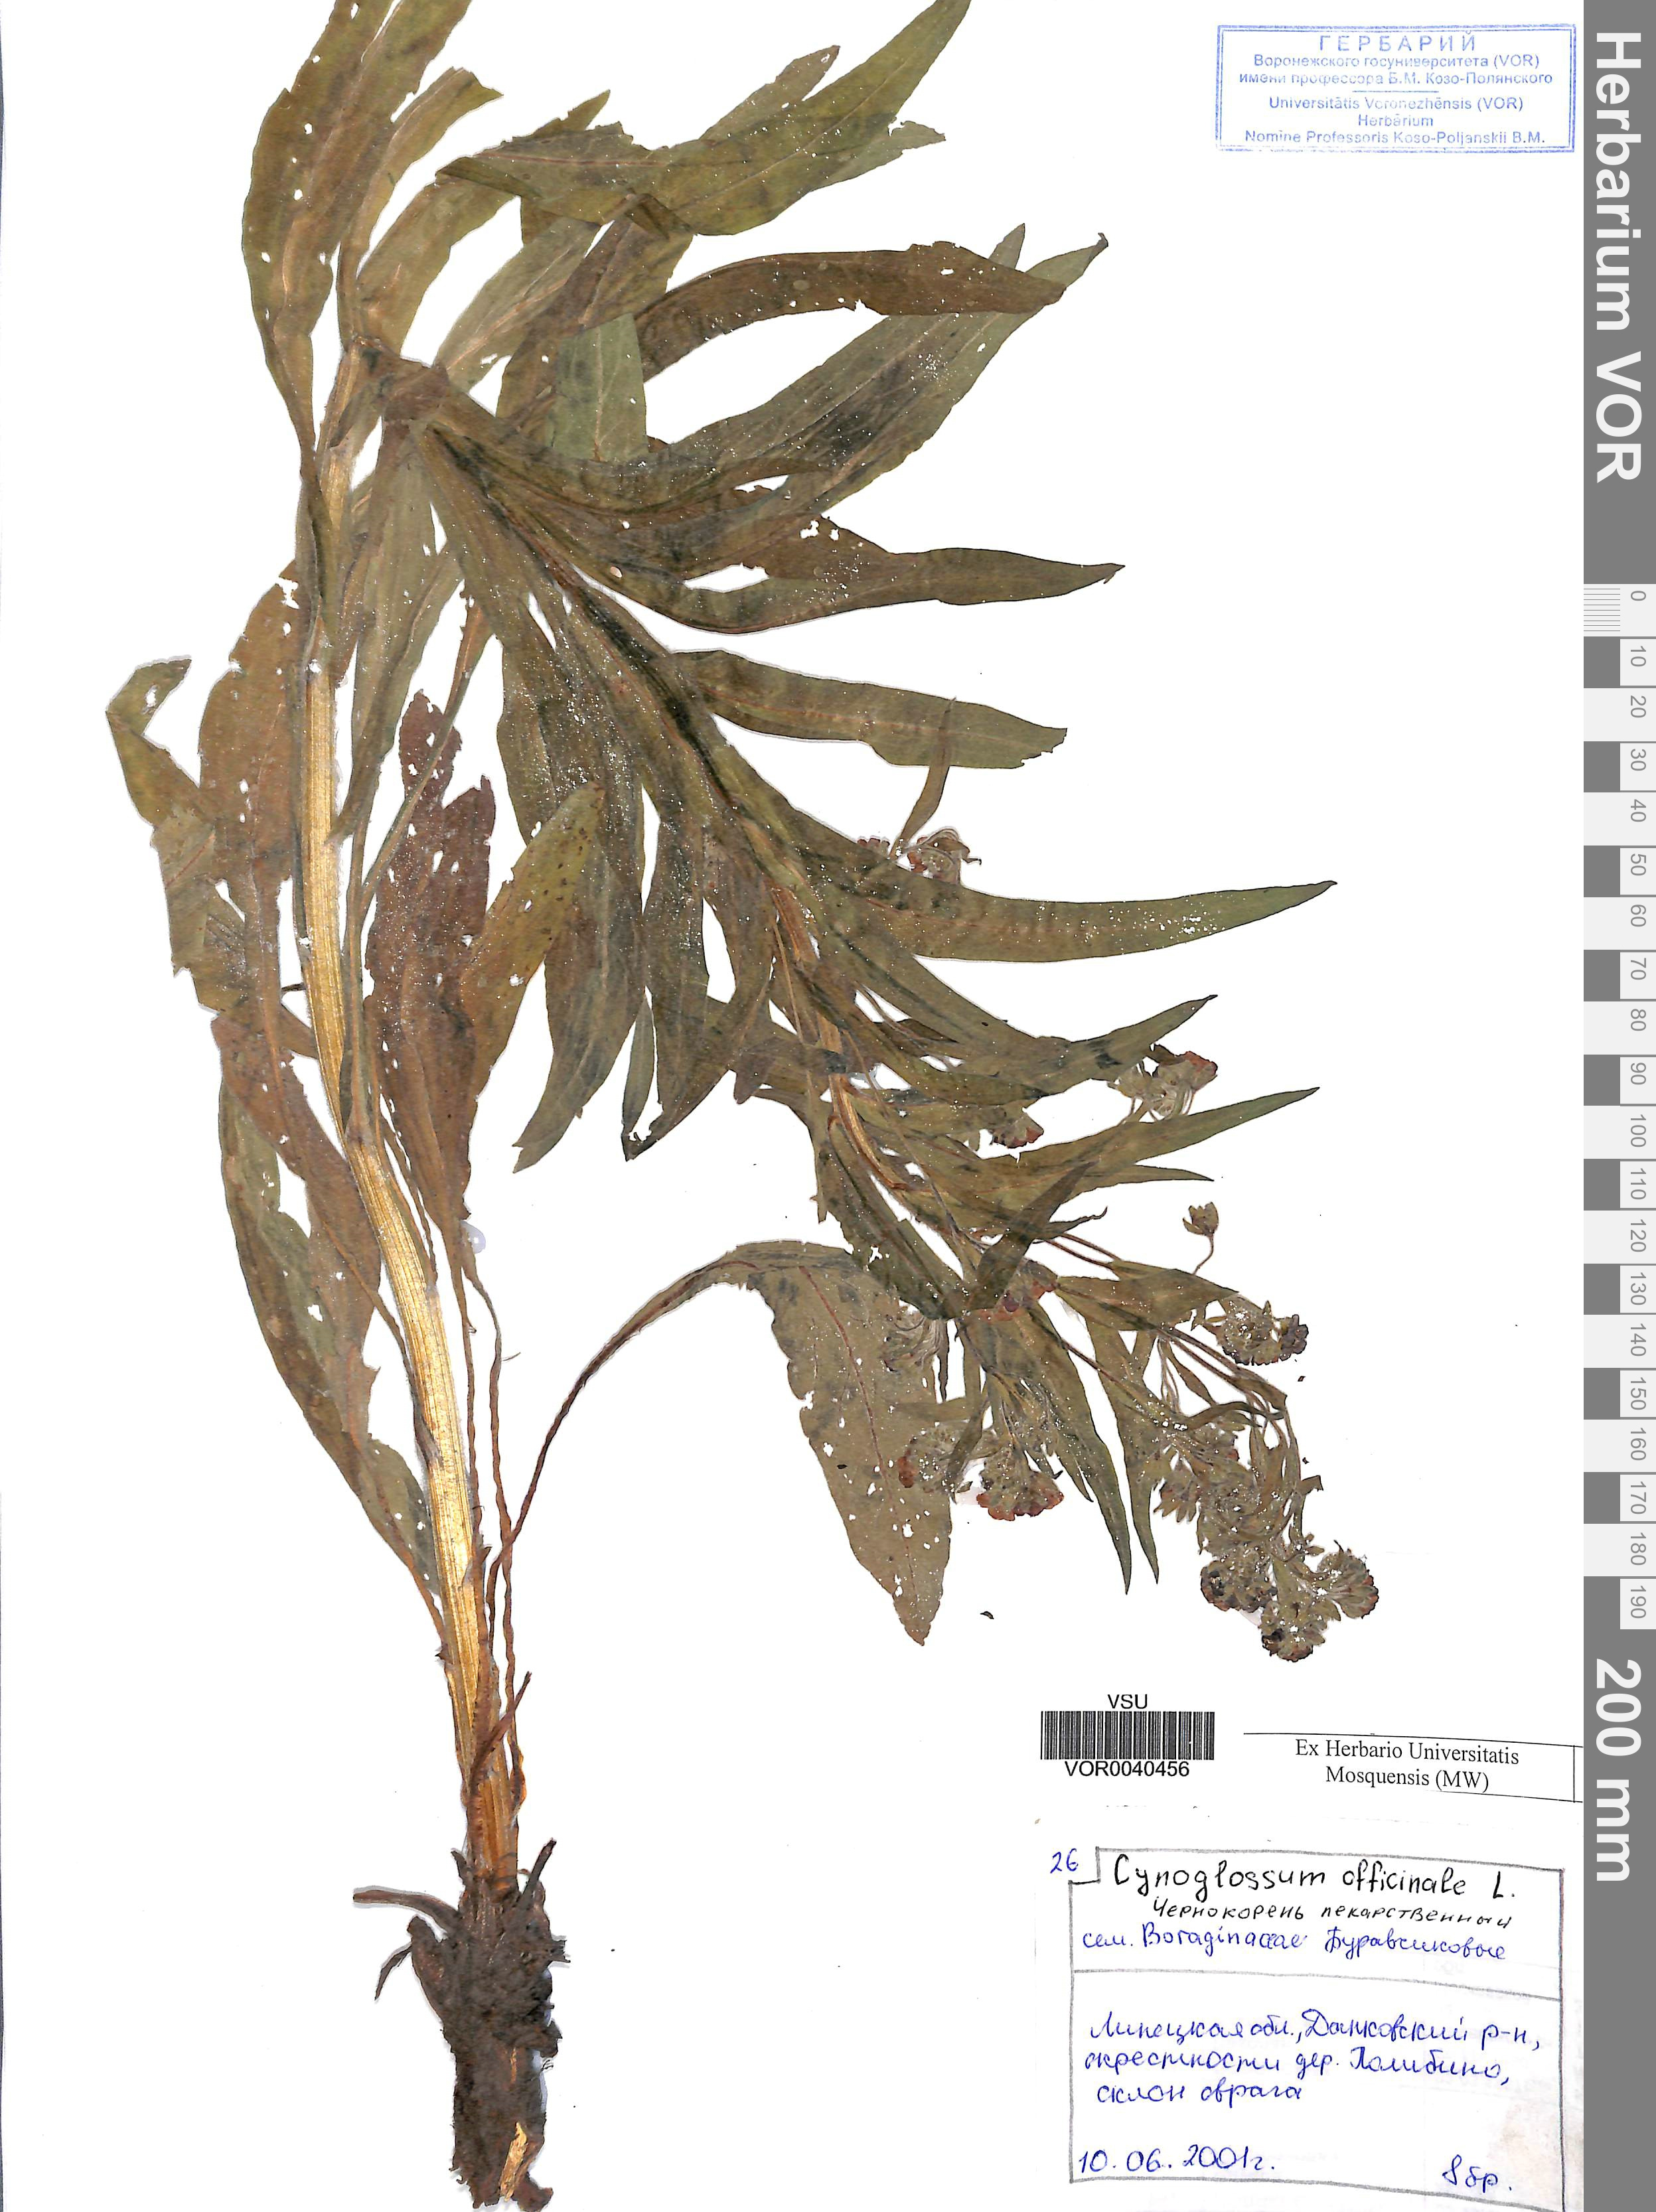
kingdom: Plantae
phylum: Tracheophyta
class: Magnoliopsida
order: Boraginales
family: Boraginaceae
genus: Cynoglossum
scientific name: Cynoglossum officinale
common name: Hound's-tongue
